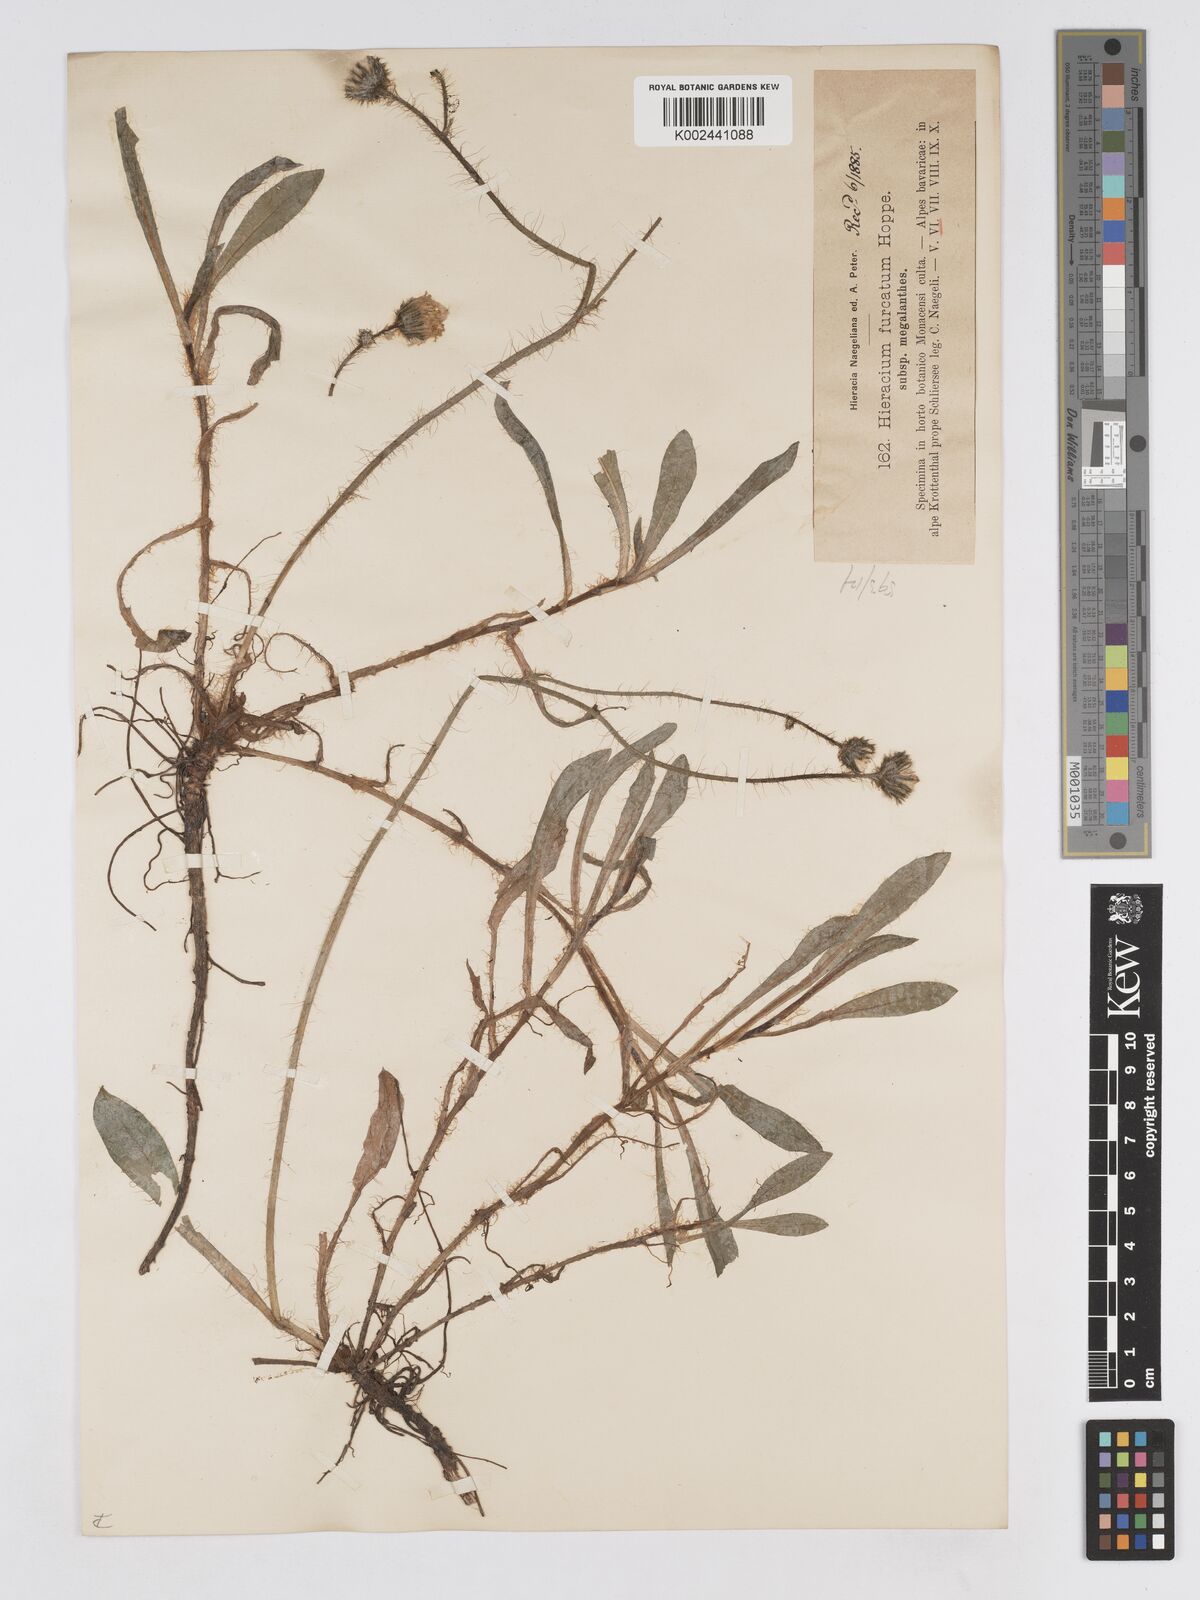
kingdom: Plantae
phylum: Tracheophyta
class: Magnoliopsida
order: Asterales
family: Asteraceae
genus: Pilosella
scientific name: Pilosella sphaerocephala
